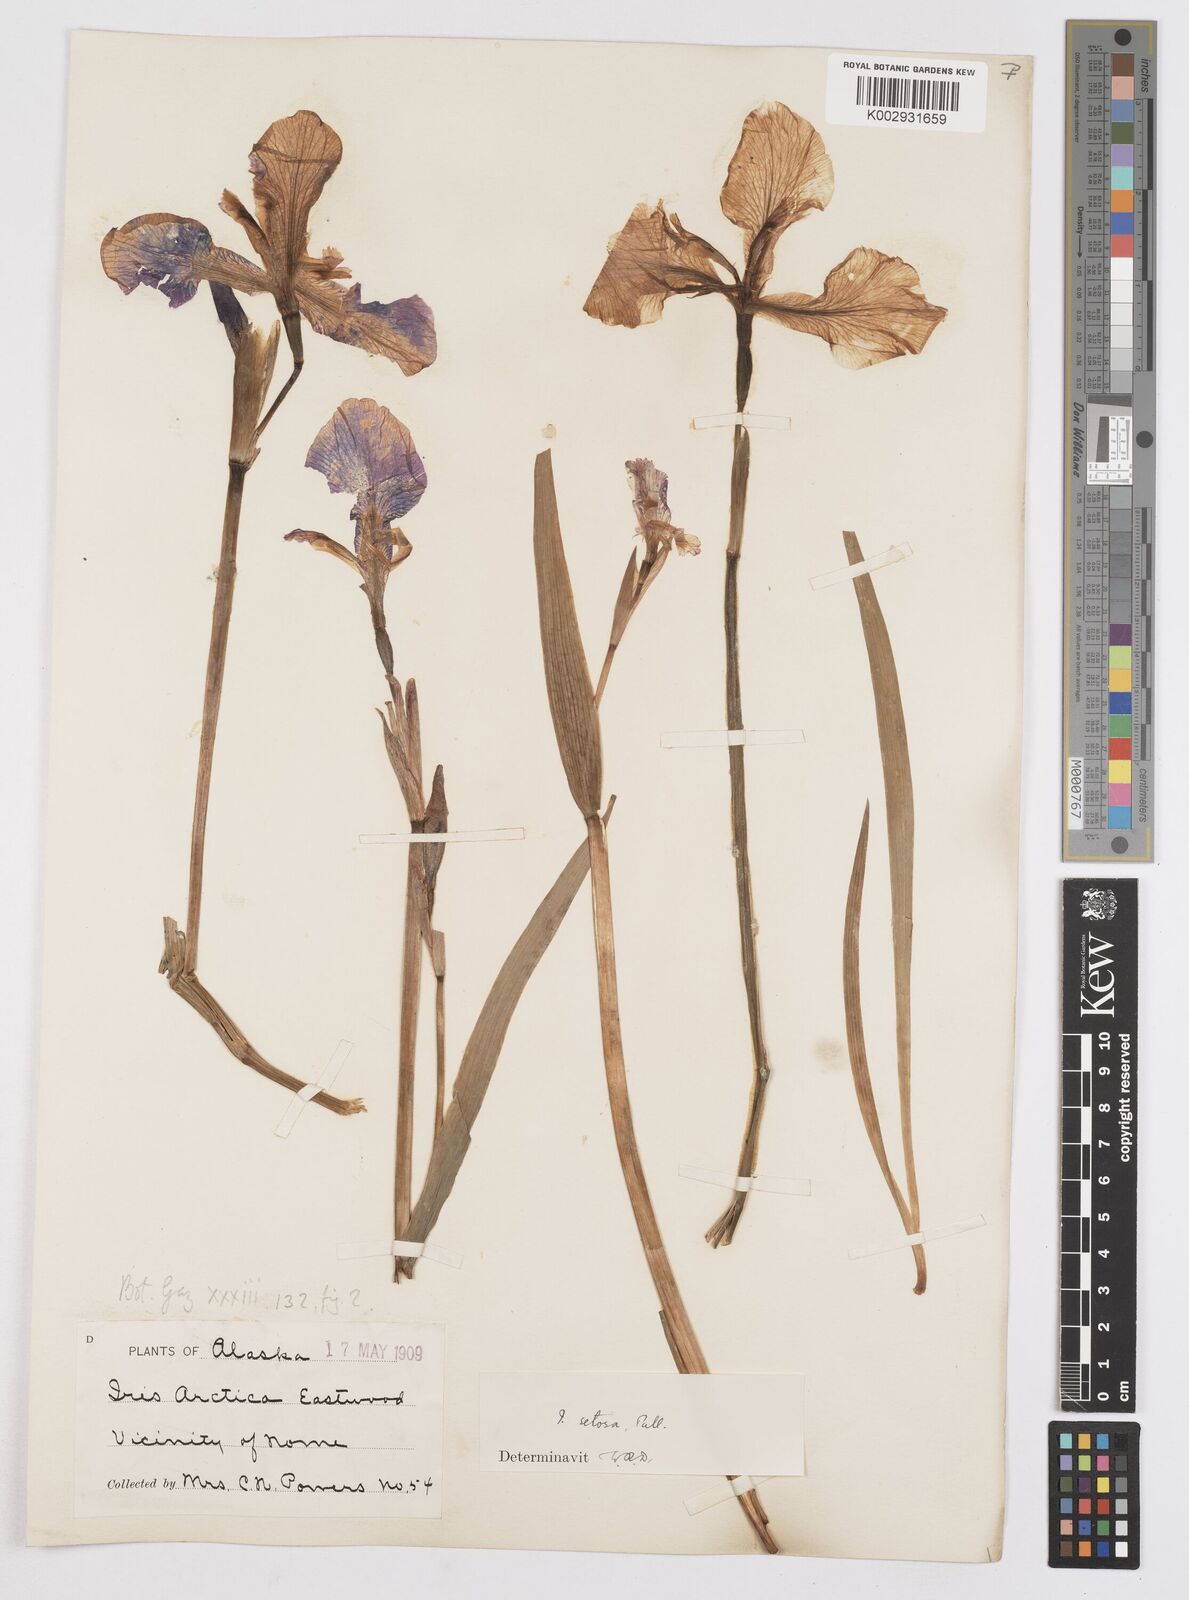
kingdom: Plantae
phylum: Tracheophyta
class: Liliopsida
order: Asparagales
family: Iridaceae
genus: Iris
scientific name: Iris setosa
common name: Arctic blue flag
